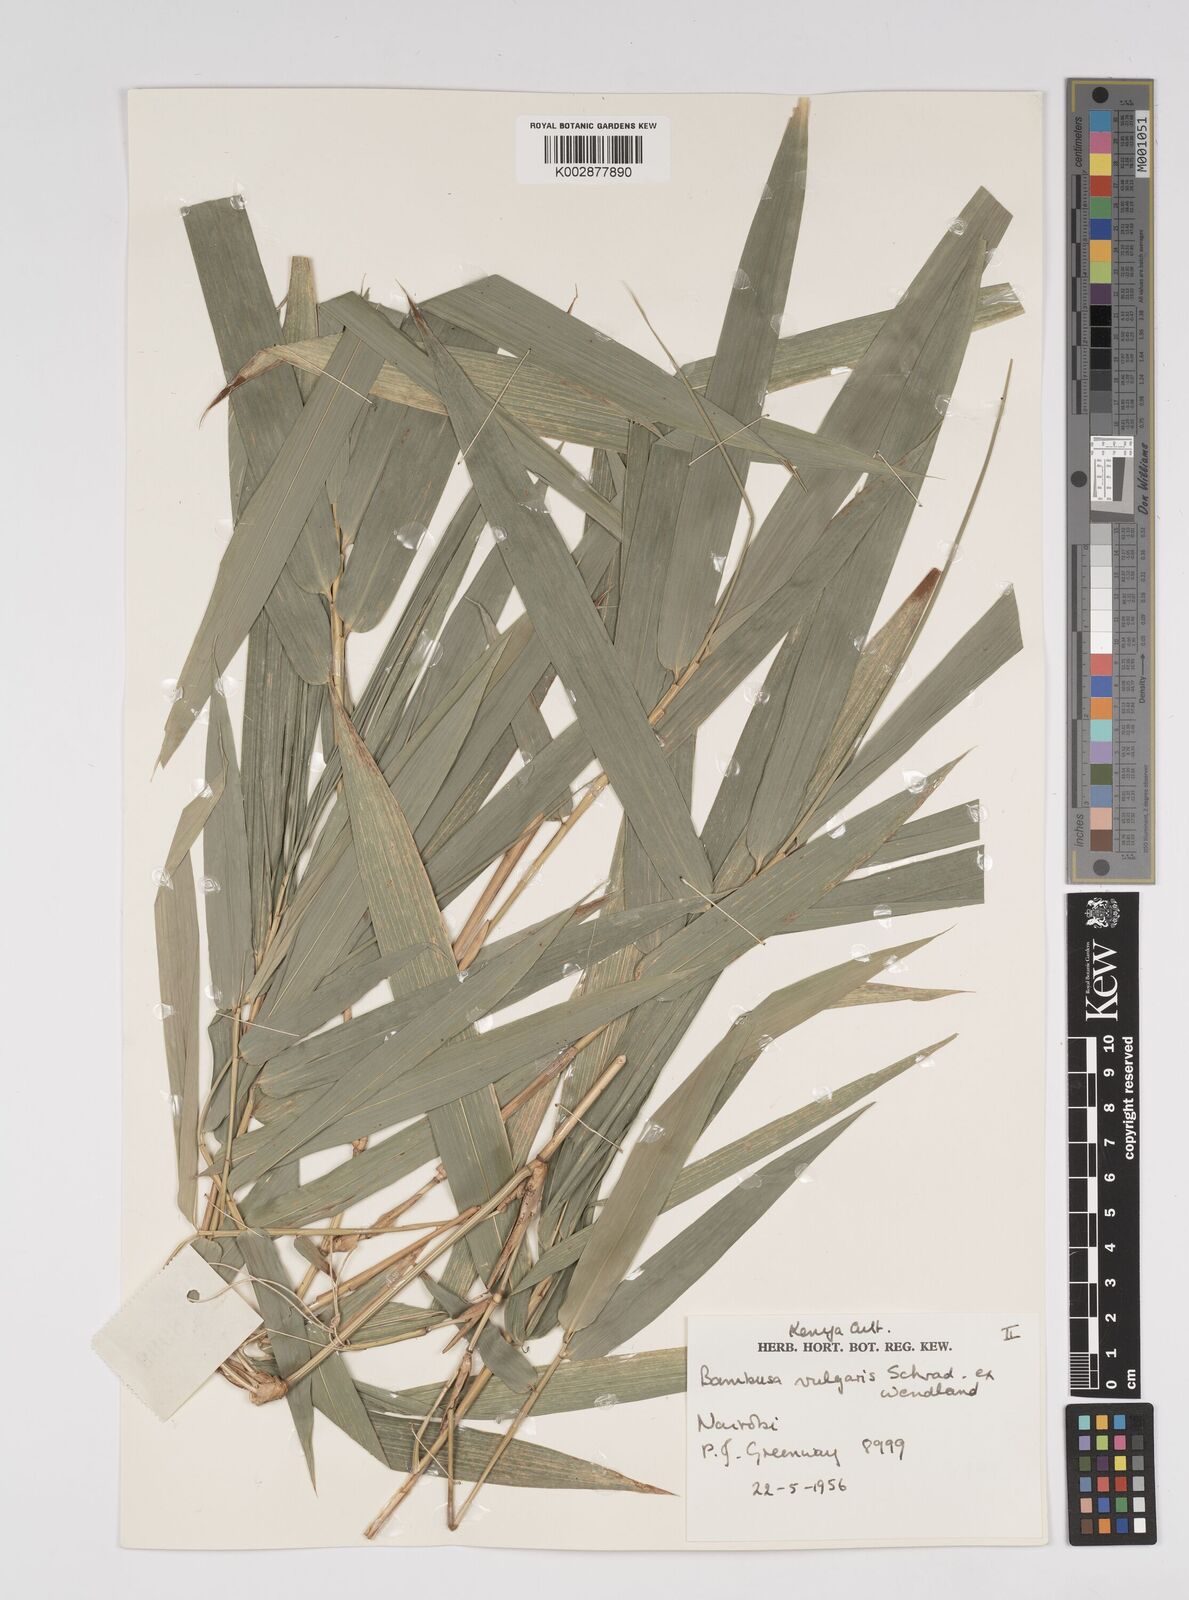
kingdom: Plantae
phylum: Tracheophyta
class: Liliopsida
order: Poales
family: Poaceae
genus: Bambusa
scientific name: Bambusa balcooa
